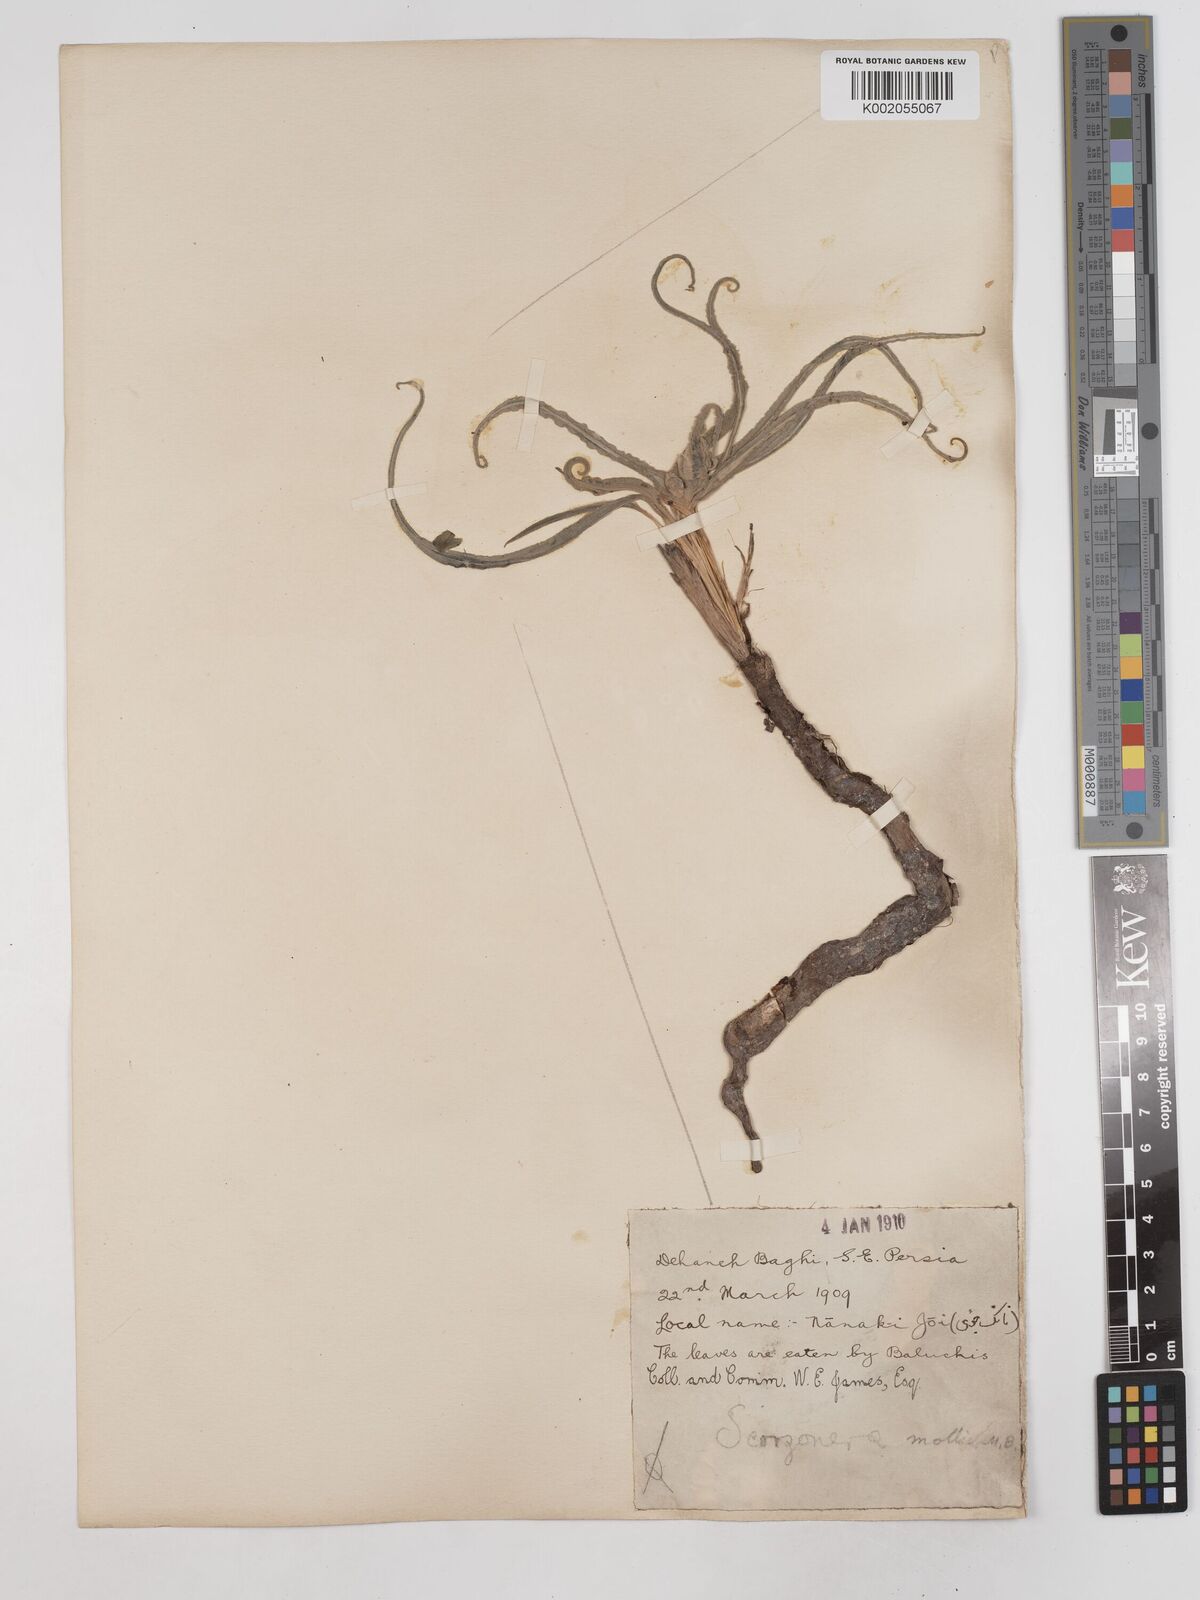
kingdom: Plantae
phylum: Tracheophyta
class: Magnoliopsida
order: Asterales
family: Asteraceae
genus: Candollea
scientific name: Candollea mollis
